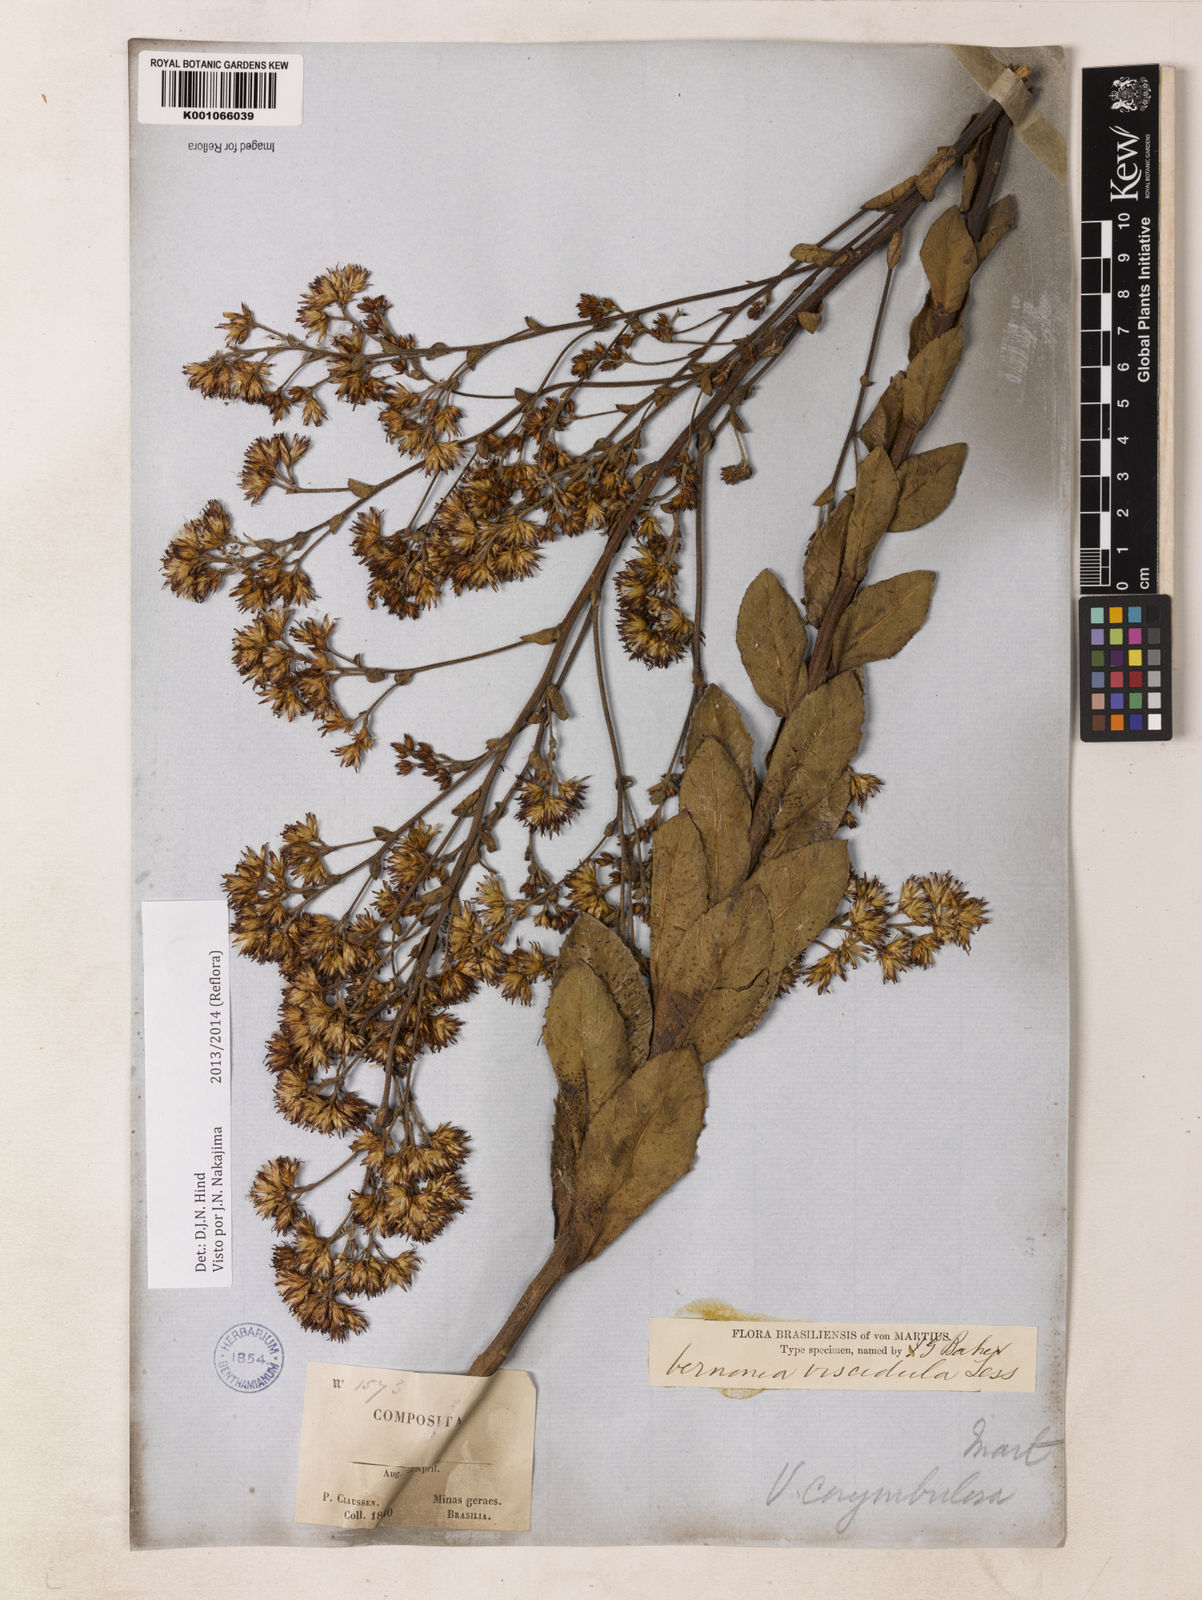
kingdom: Plantae
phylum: Tracheophyta
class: Magnoliopsida
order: Asterales
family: Asteraceae
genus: Vernonanthura
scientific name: Vernonanthura viscidula
